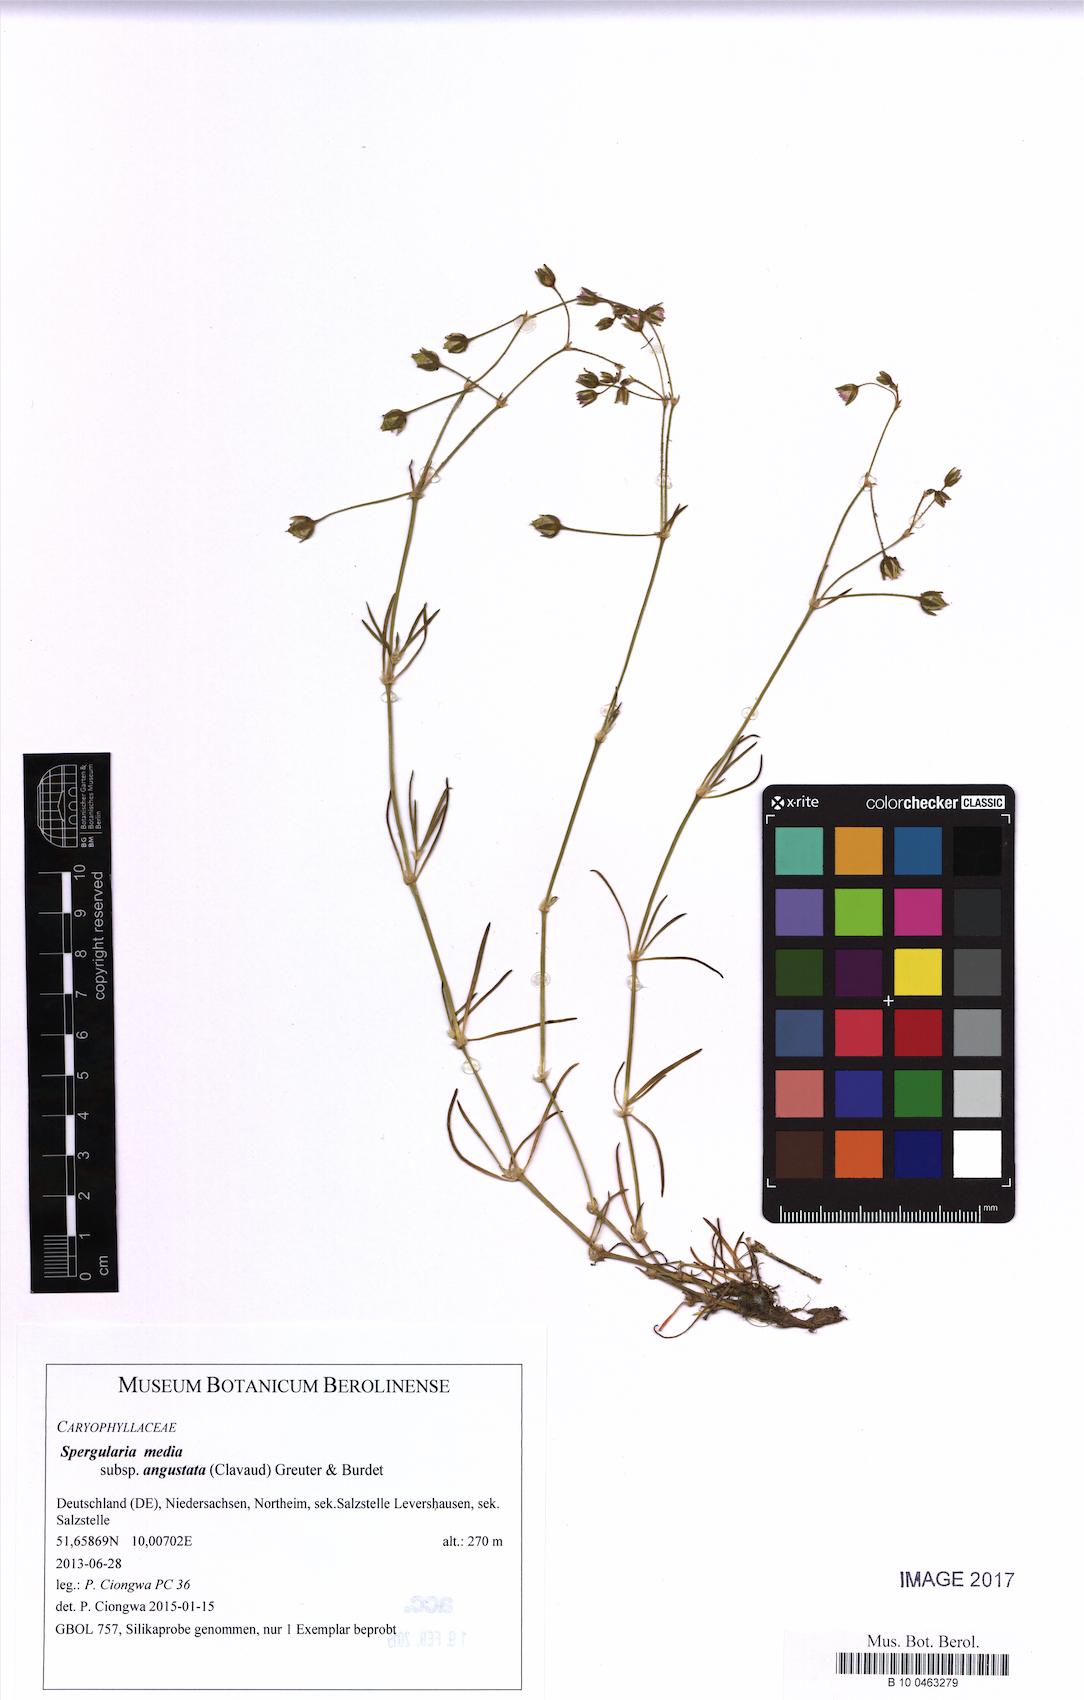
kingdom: Plantae
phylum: Tracheophyta
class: Magnoliopsida
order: Caryophyllales
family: Caryophyllaceae
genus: Spergularia
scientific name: Spergularia media
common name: Greater sea-spurrey
